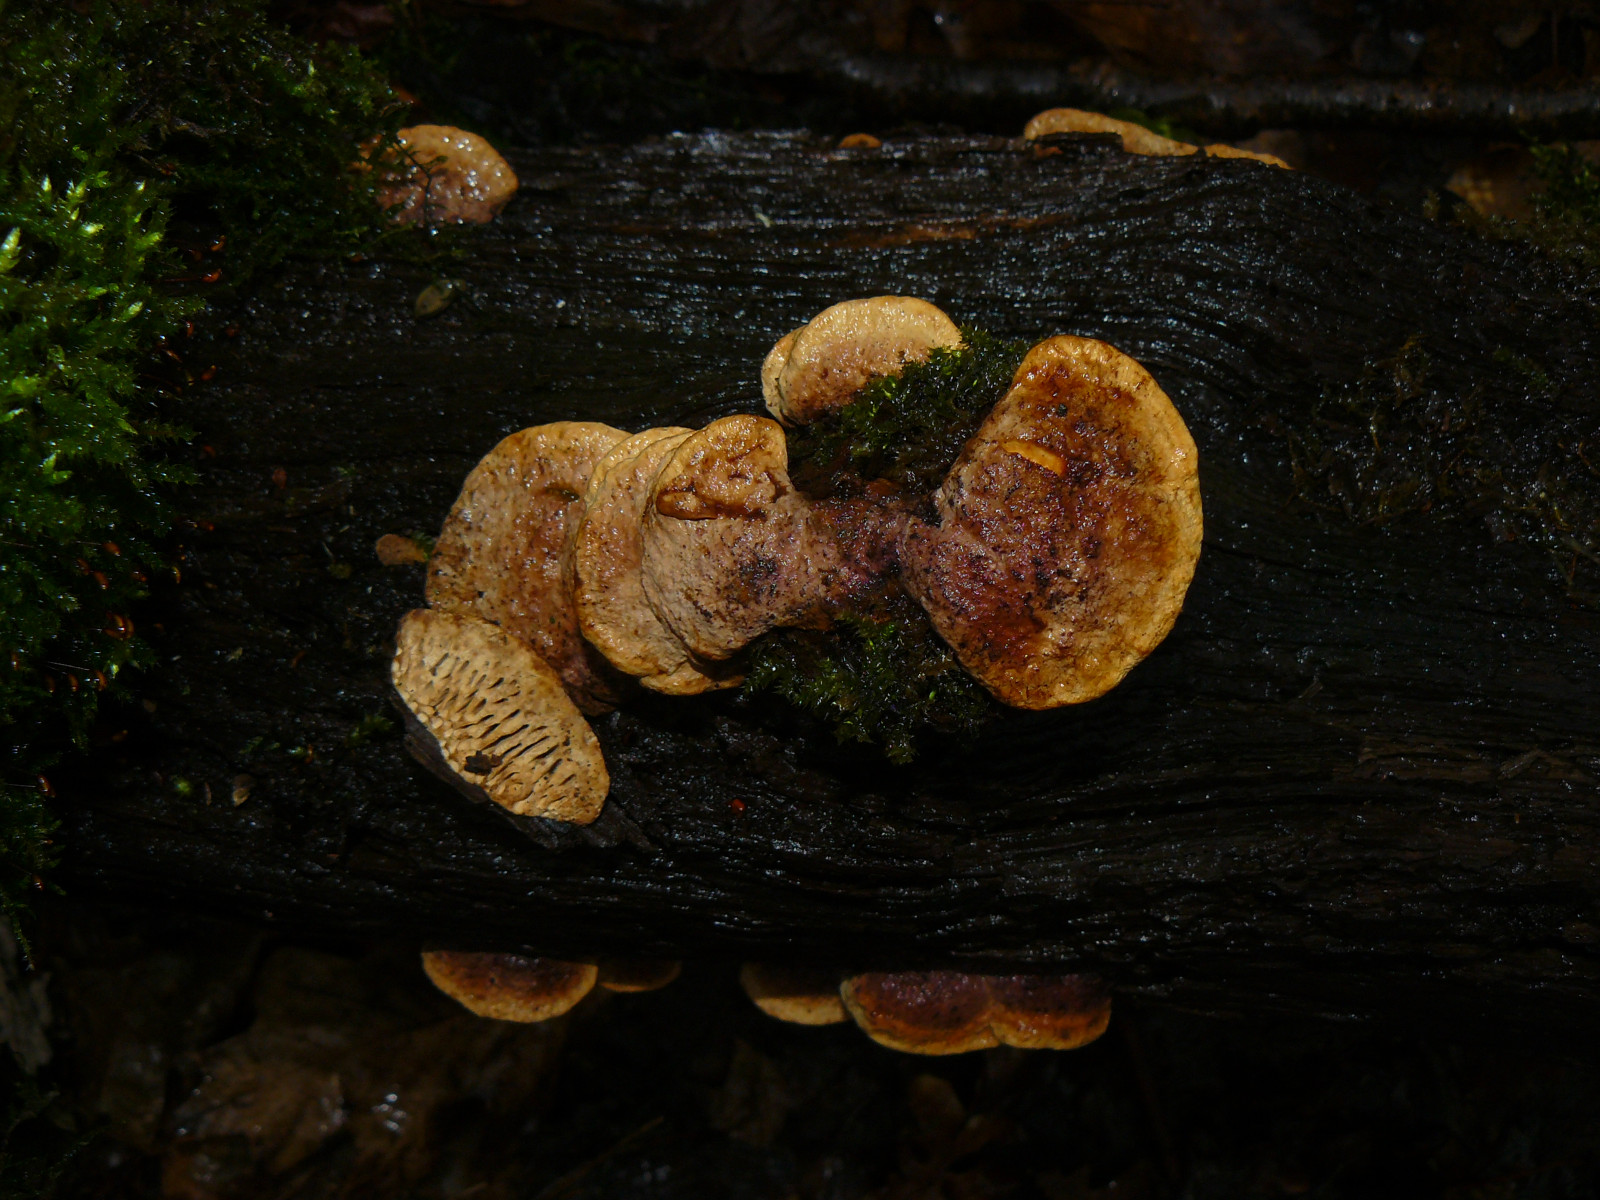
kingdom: Fungi
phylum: Basidiomycota
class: Agaricomycetes
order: Polyporales
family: Fomitopsidaceae
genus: Daedalea
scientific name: Daedalea quercina
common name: ege-labyrintsvamp
